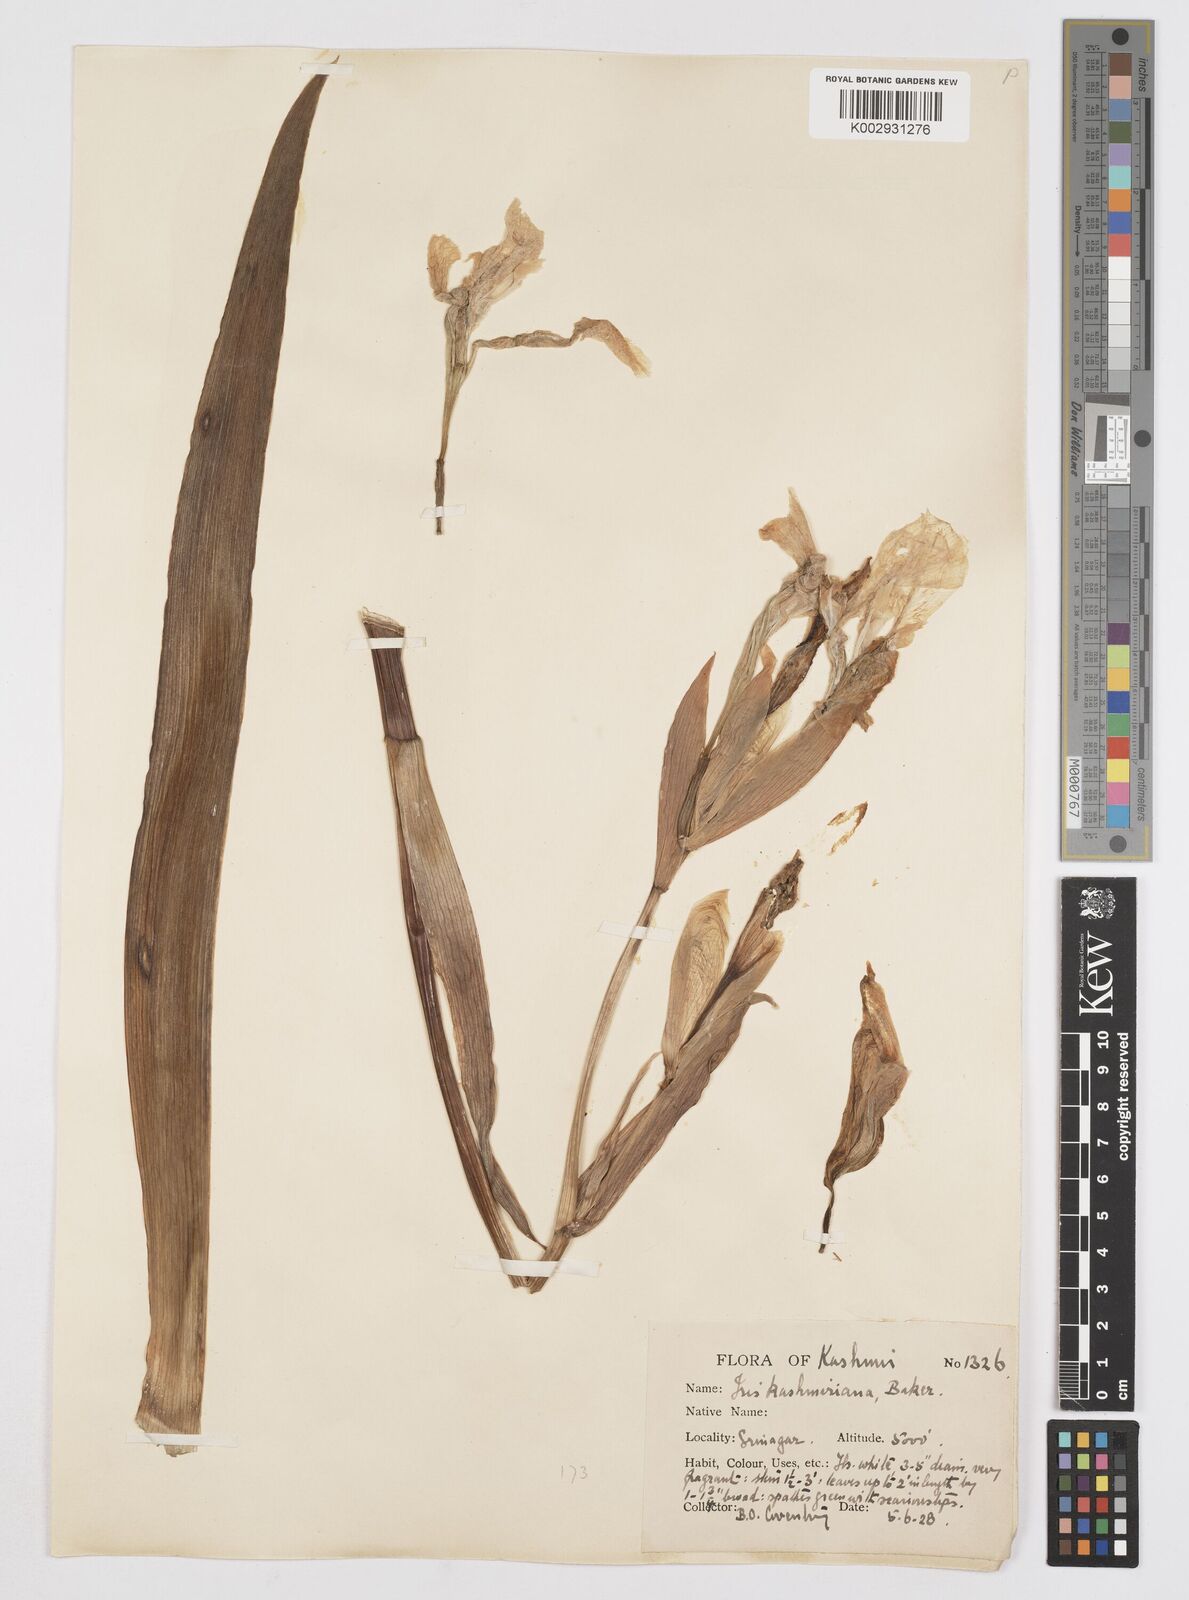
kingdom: Plantae
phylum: Tracheophyta
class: Liliopsida
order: Asparagales
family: Iridaceae
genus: Iris
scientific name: Iris kashmiriana
